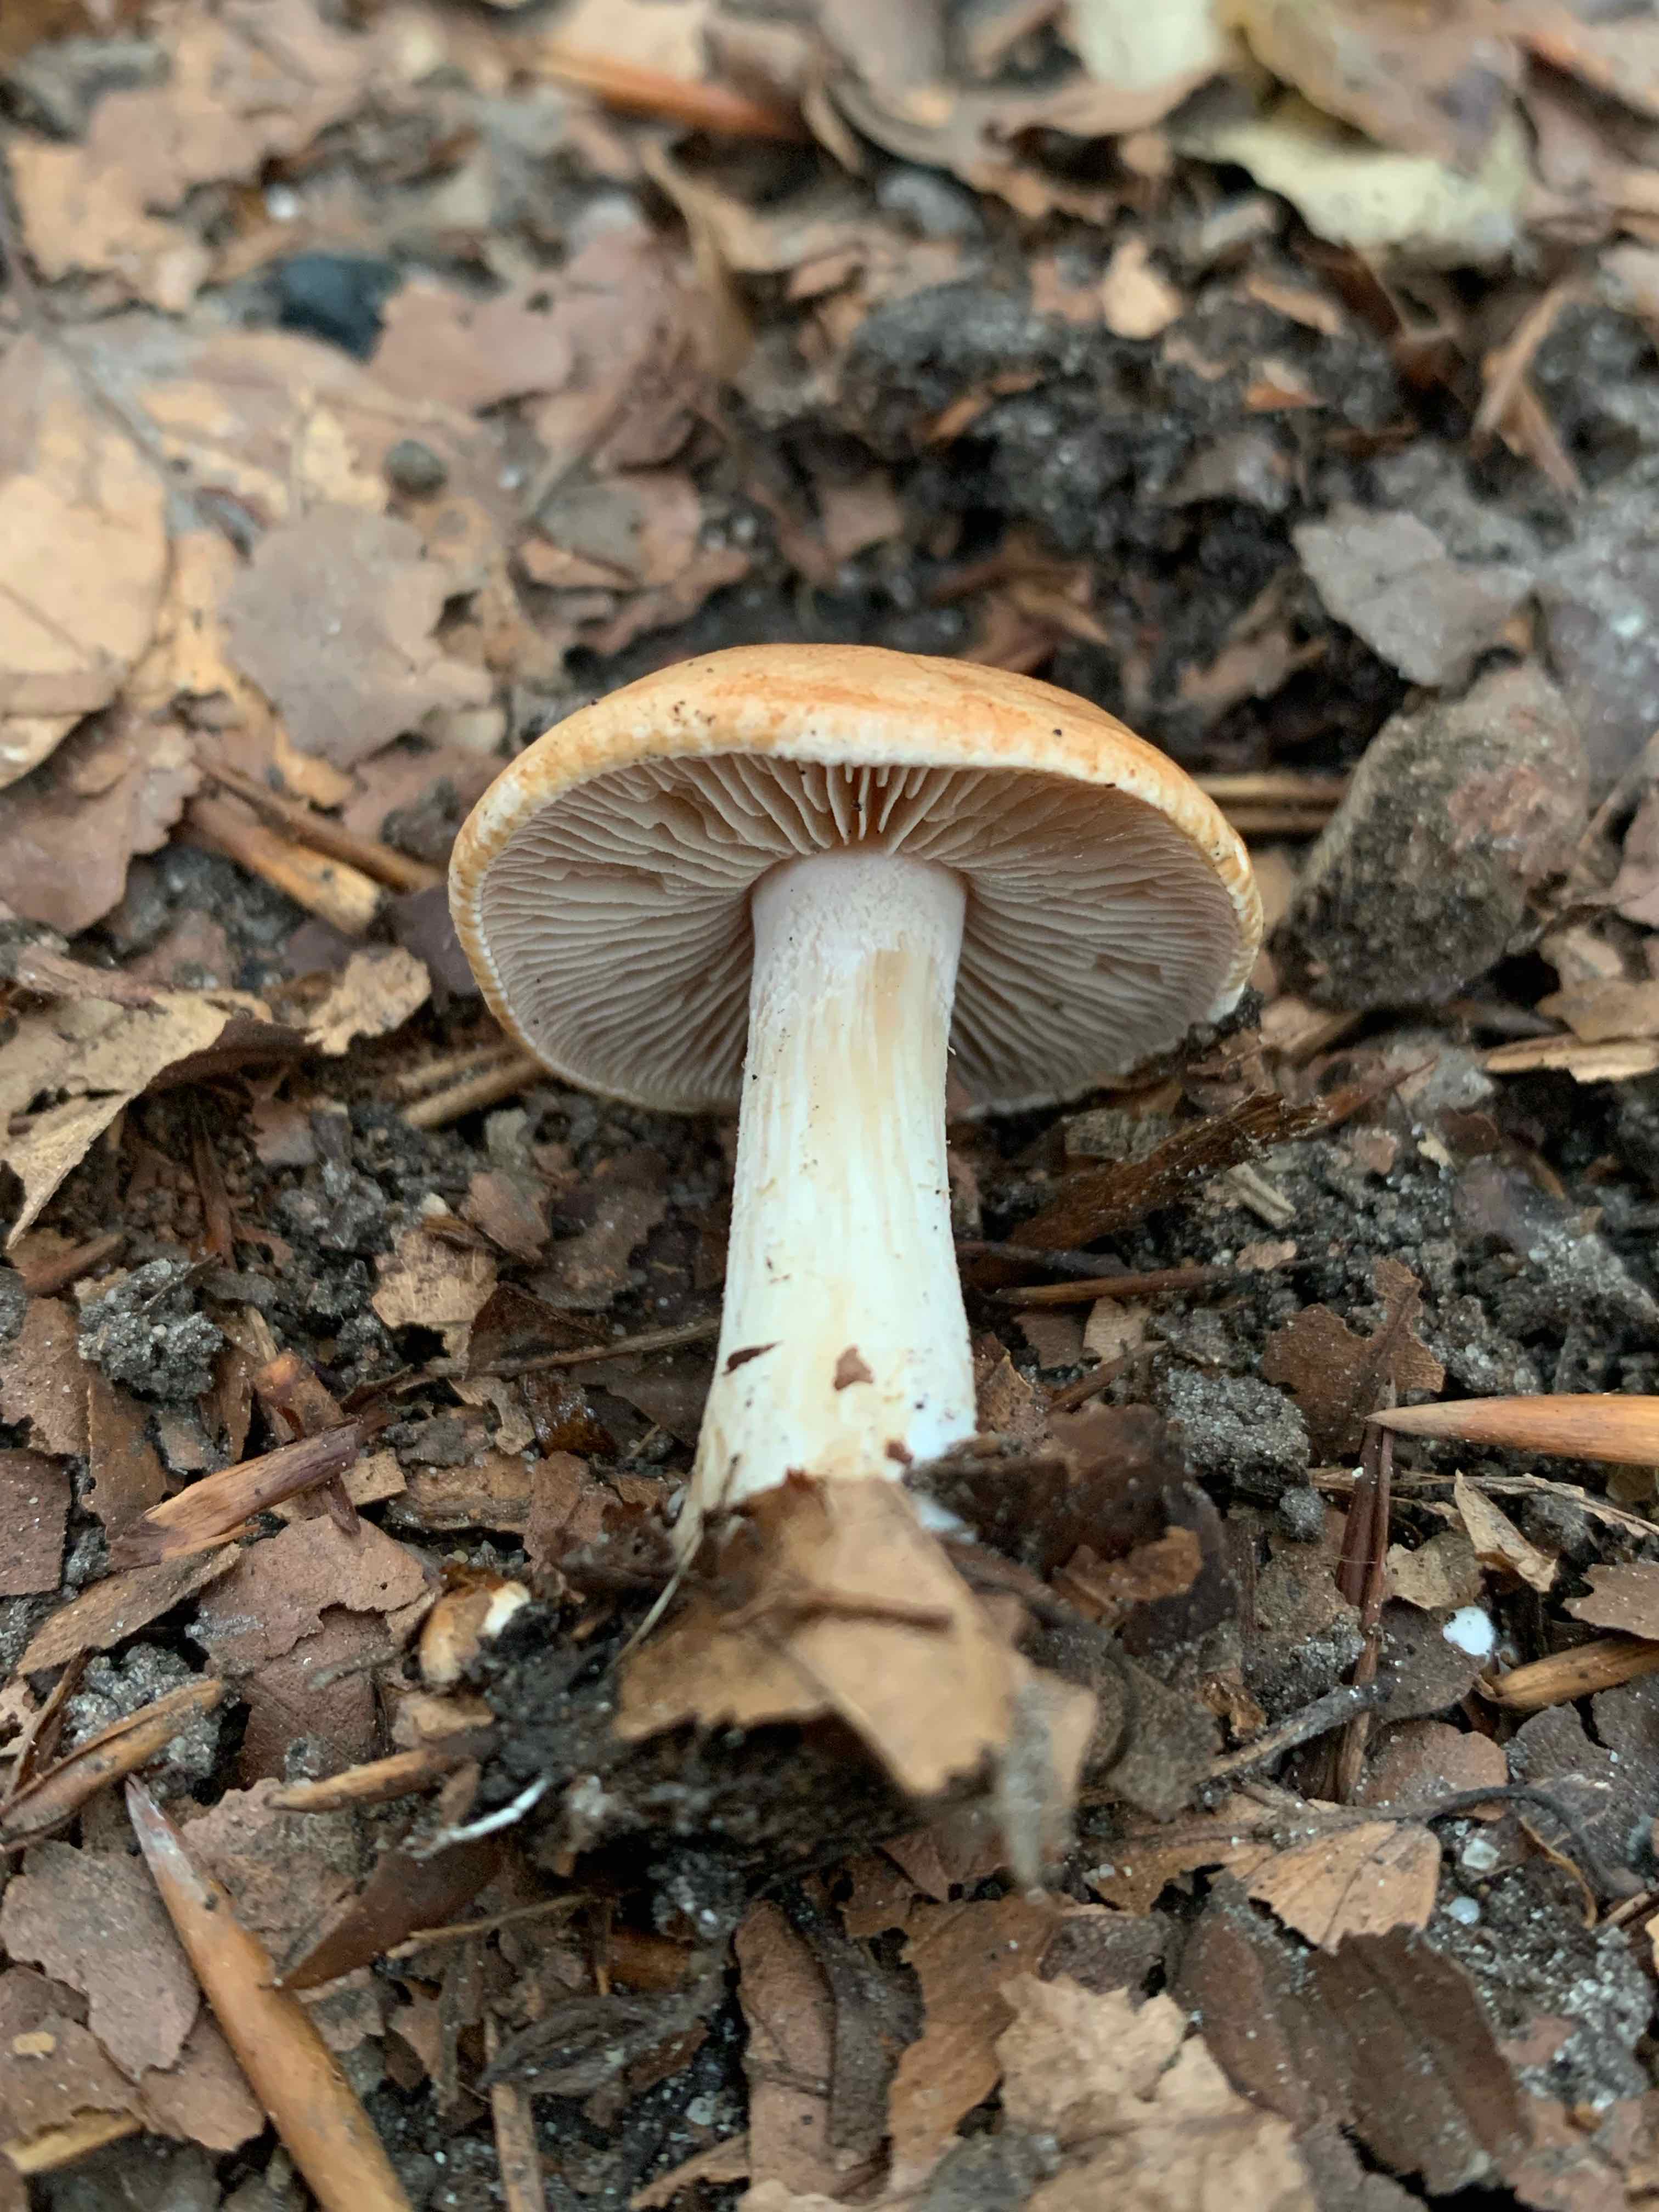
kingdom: Fungi
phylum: Basidiomycota
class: Agaricomycetes
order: Agaricales
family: Hymenogastraceae
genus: Hebeloma
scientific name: Hebeloma
